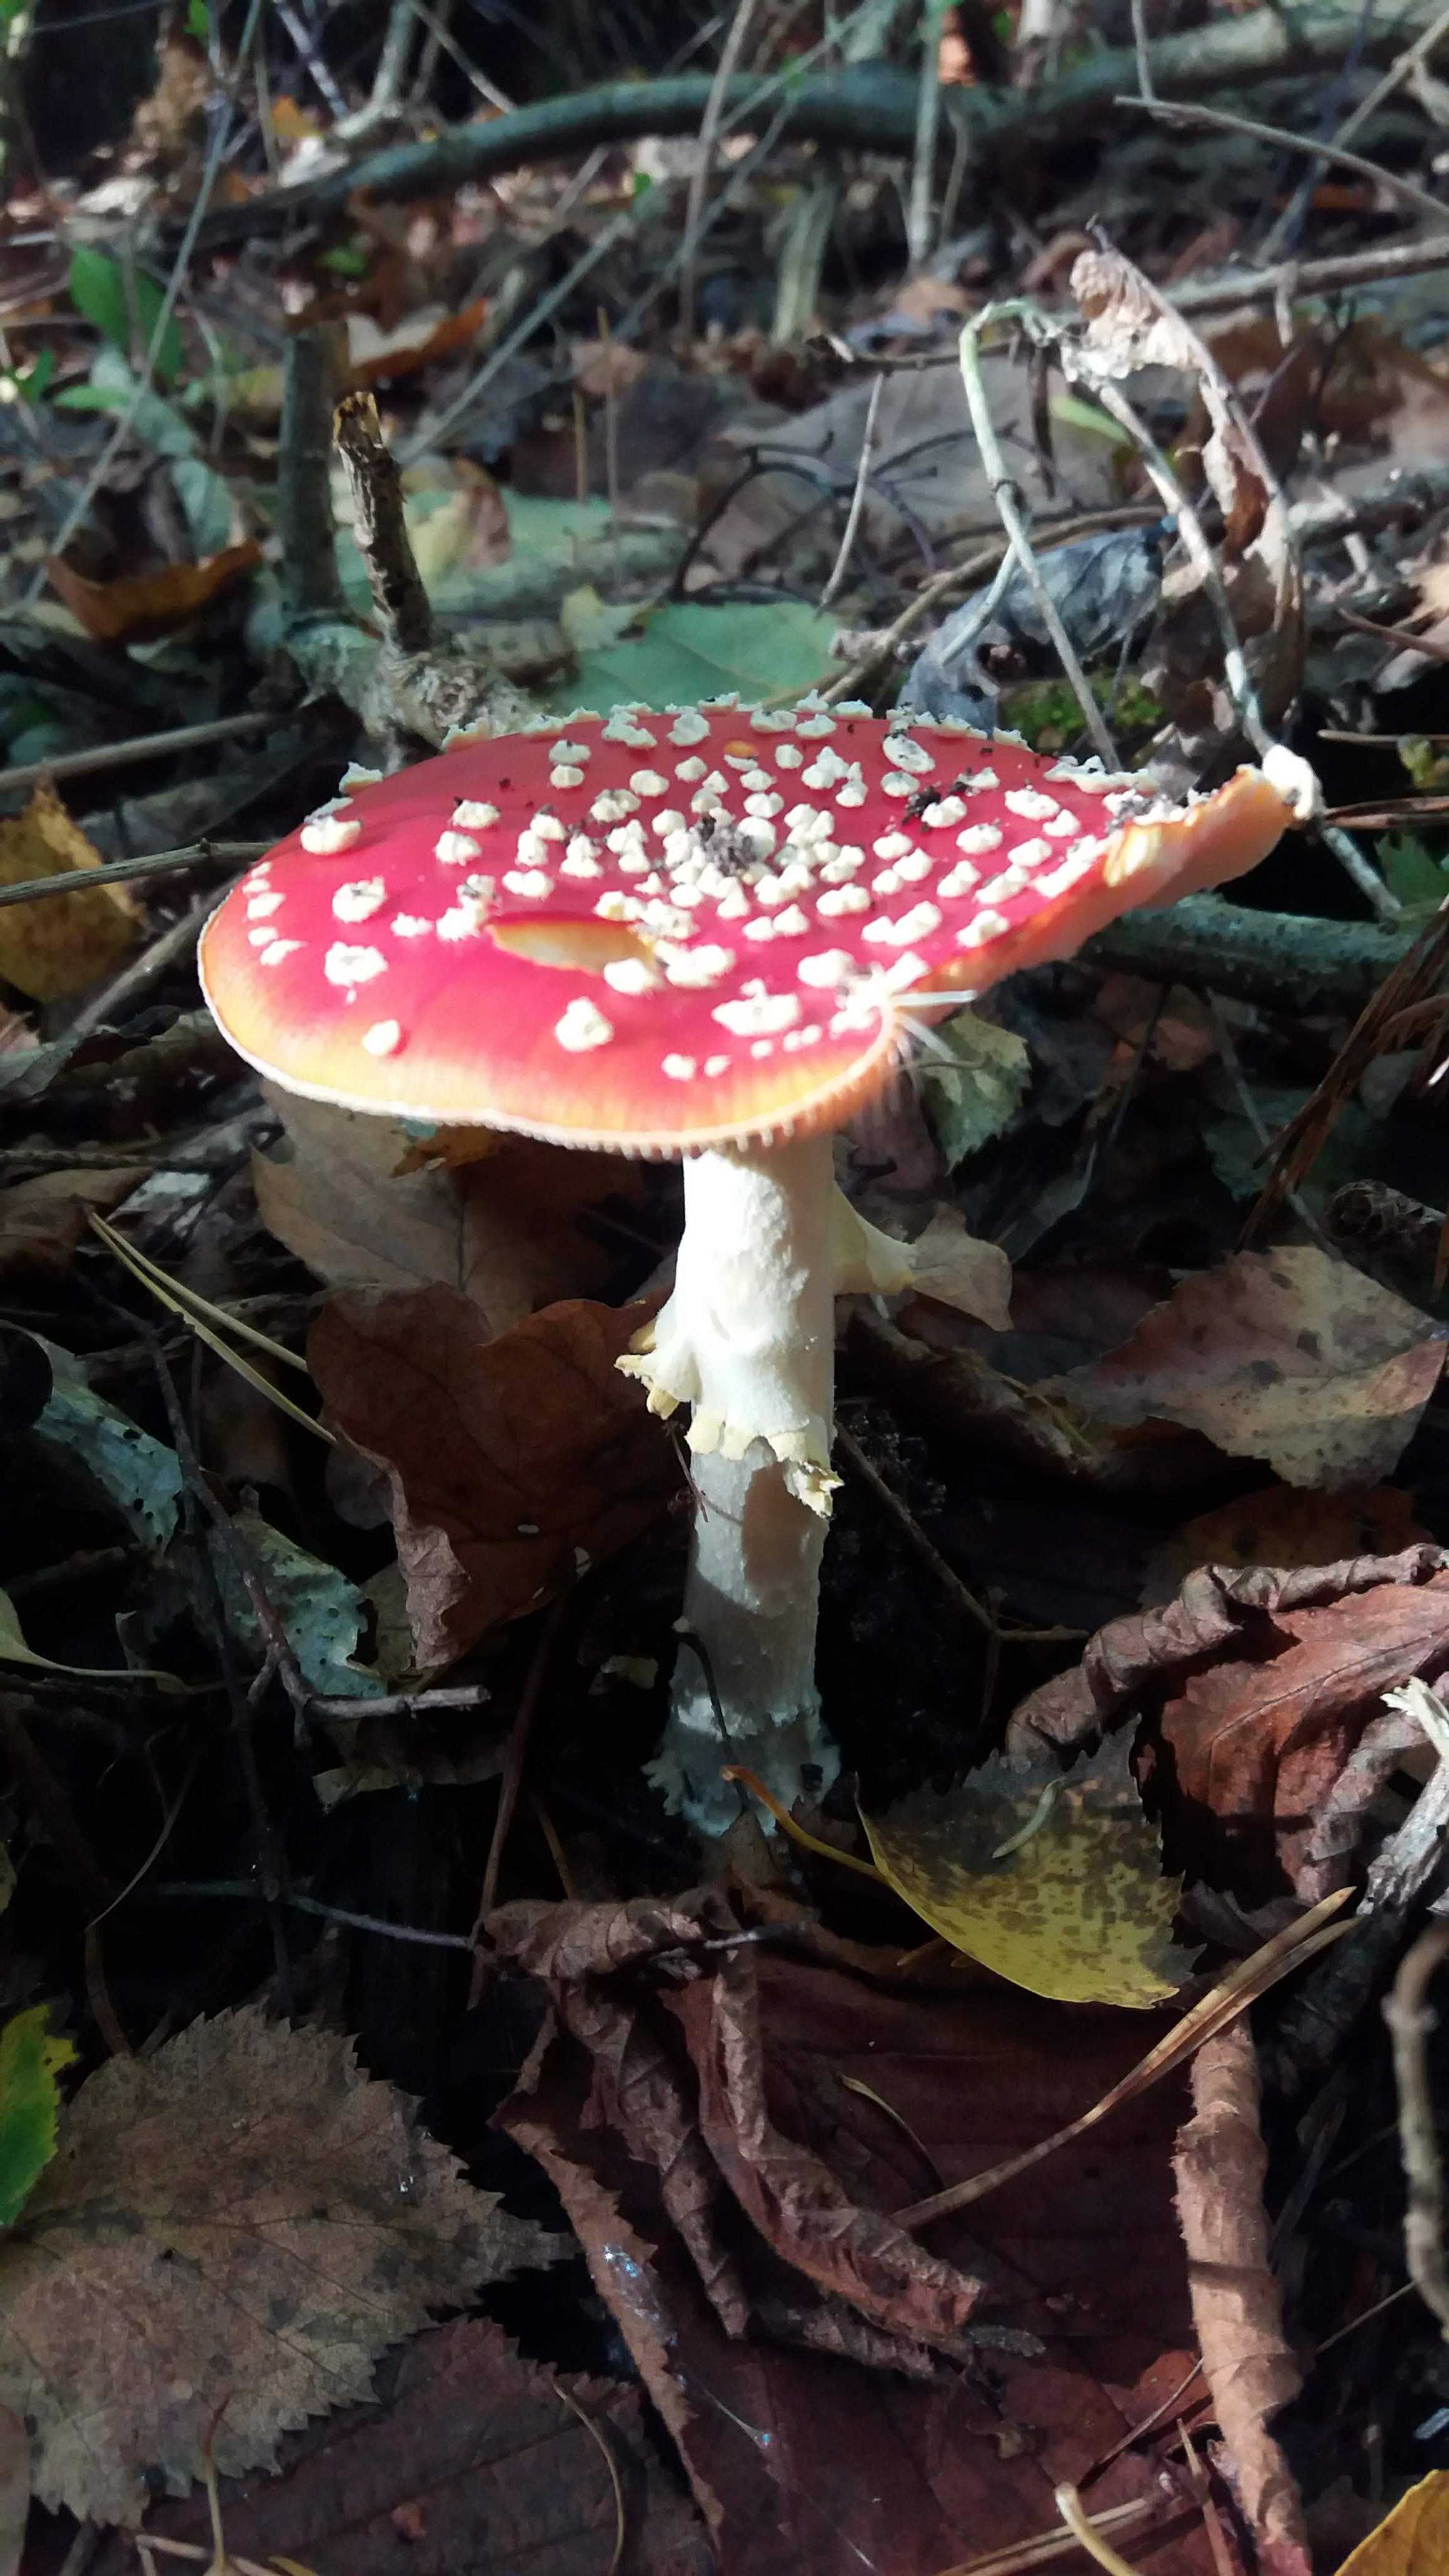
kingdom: Fungi
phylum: Basidiomycota
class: Agaricomycetes
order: Agaricales
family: Amanitaceae
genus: Amanita
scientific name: Amanita muscaria
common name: rød fluesvamp
